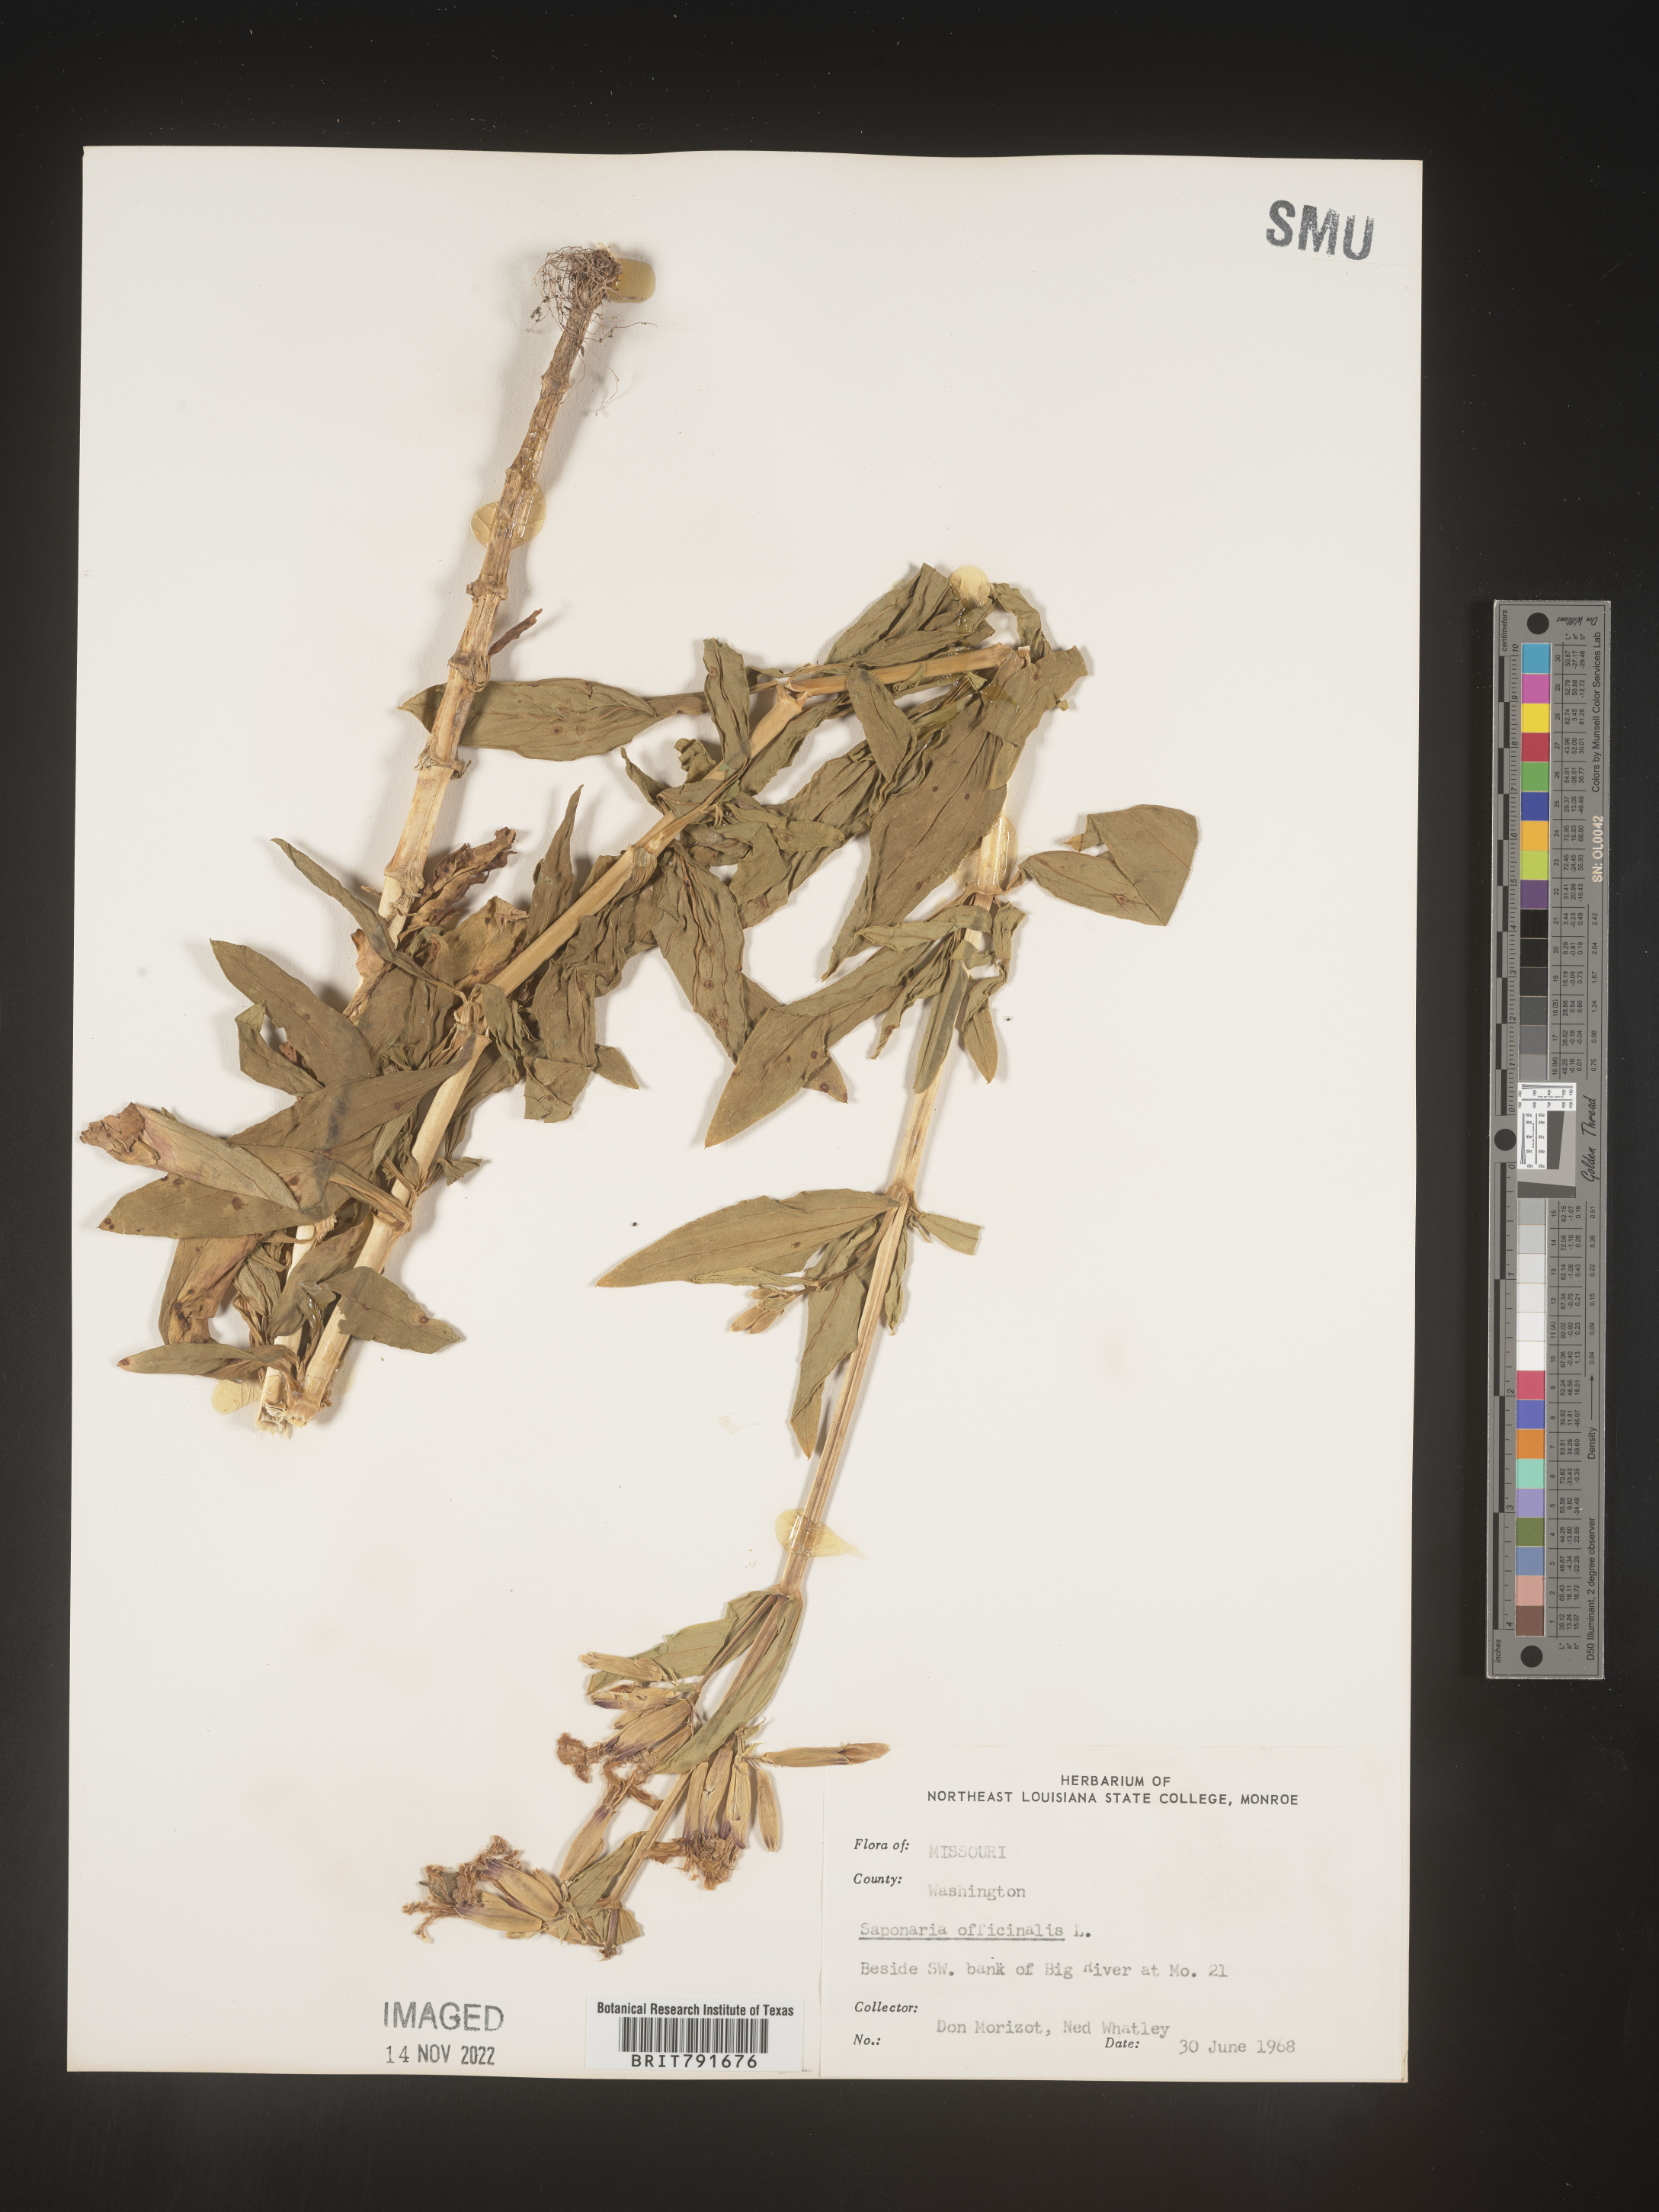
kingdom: Plantae
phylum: Tracheophyta
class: Magnoliopsida
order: Caryophyllales
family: Caryophyllaceae
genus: Saponaria
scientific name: Saponaria officinalis
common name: Soapwort
